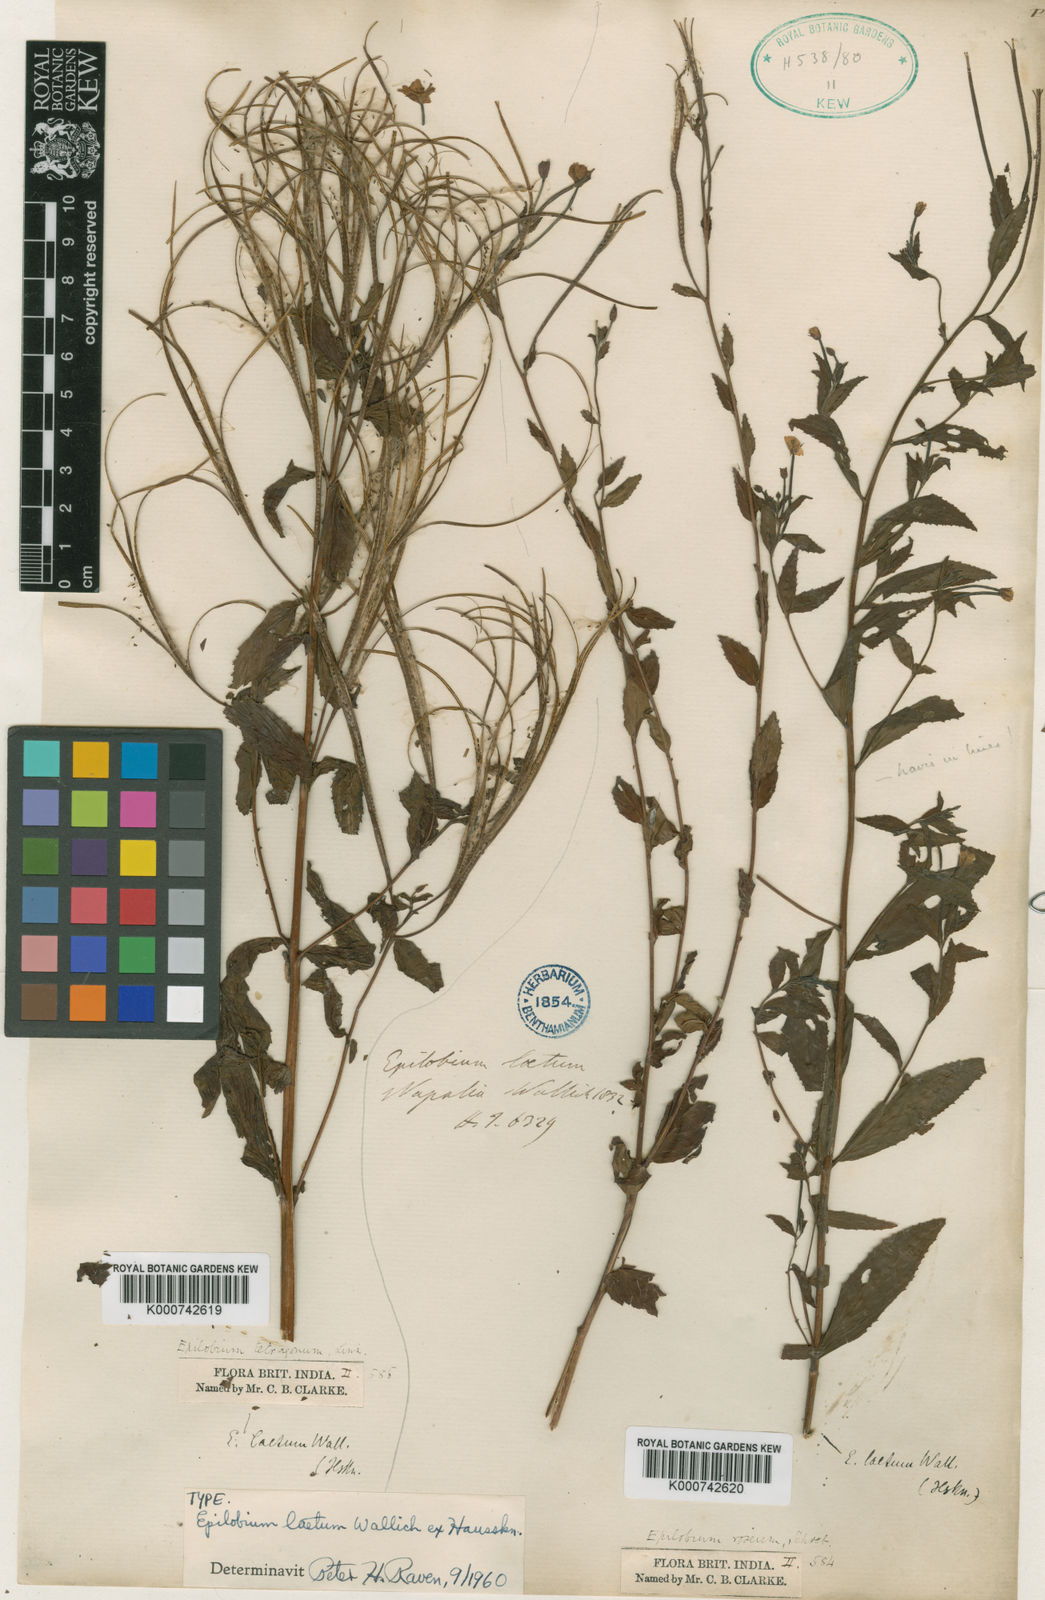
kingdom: Plantae
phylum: Tracheophyta
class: Magnoliopsida
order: Myrtales
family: Onagraceae
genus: Epilobium
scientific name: Epilobium amurense
